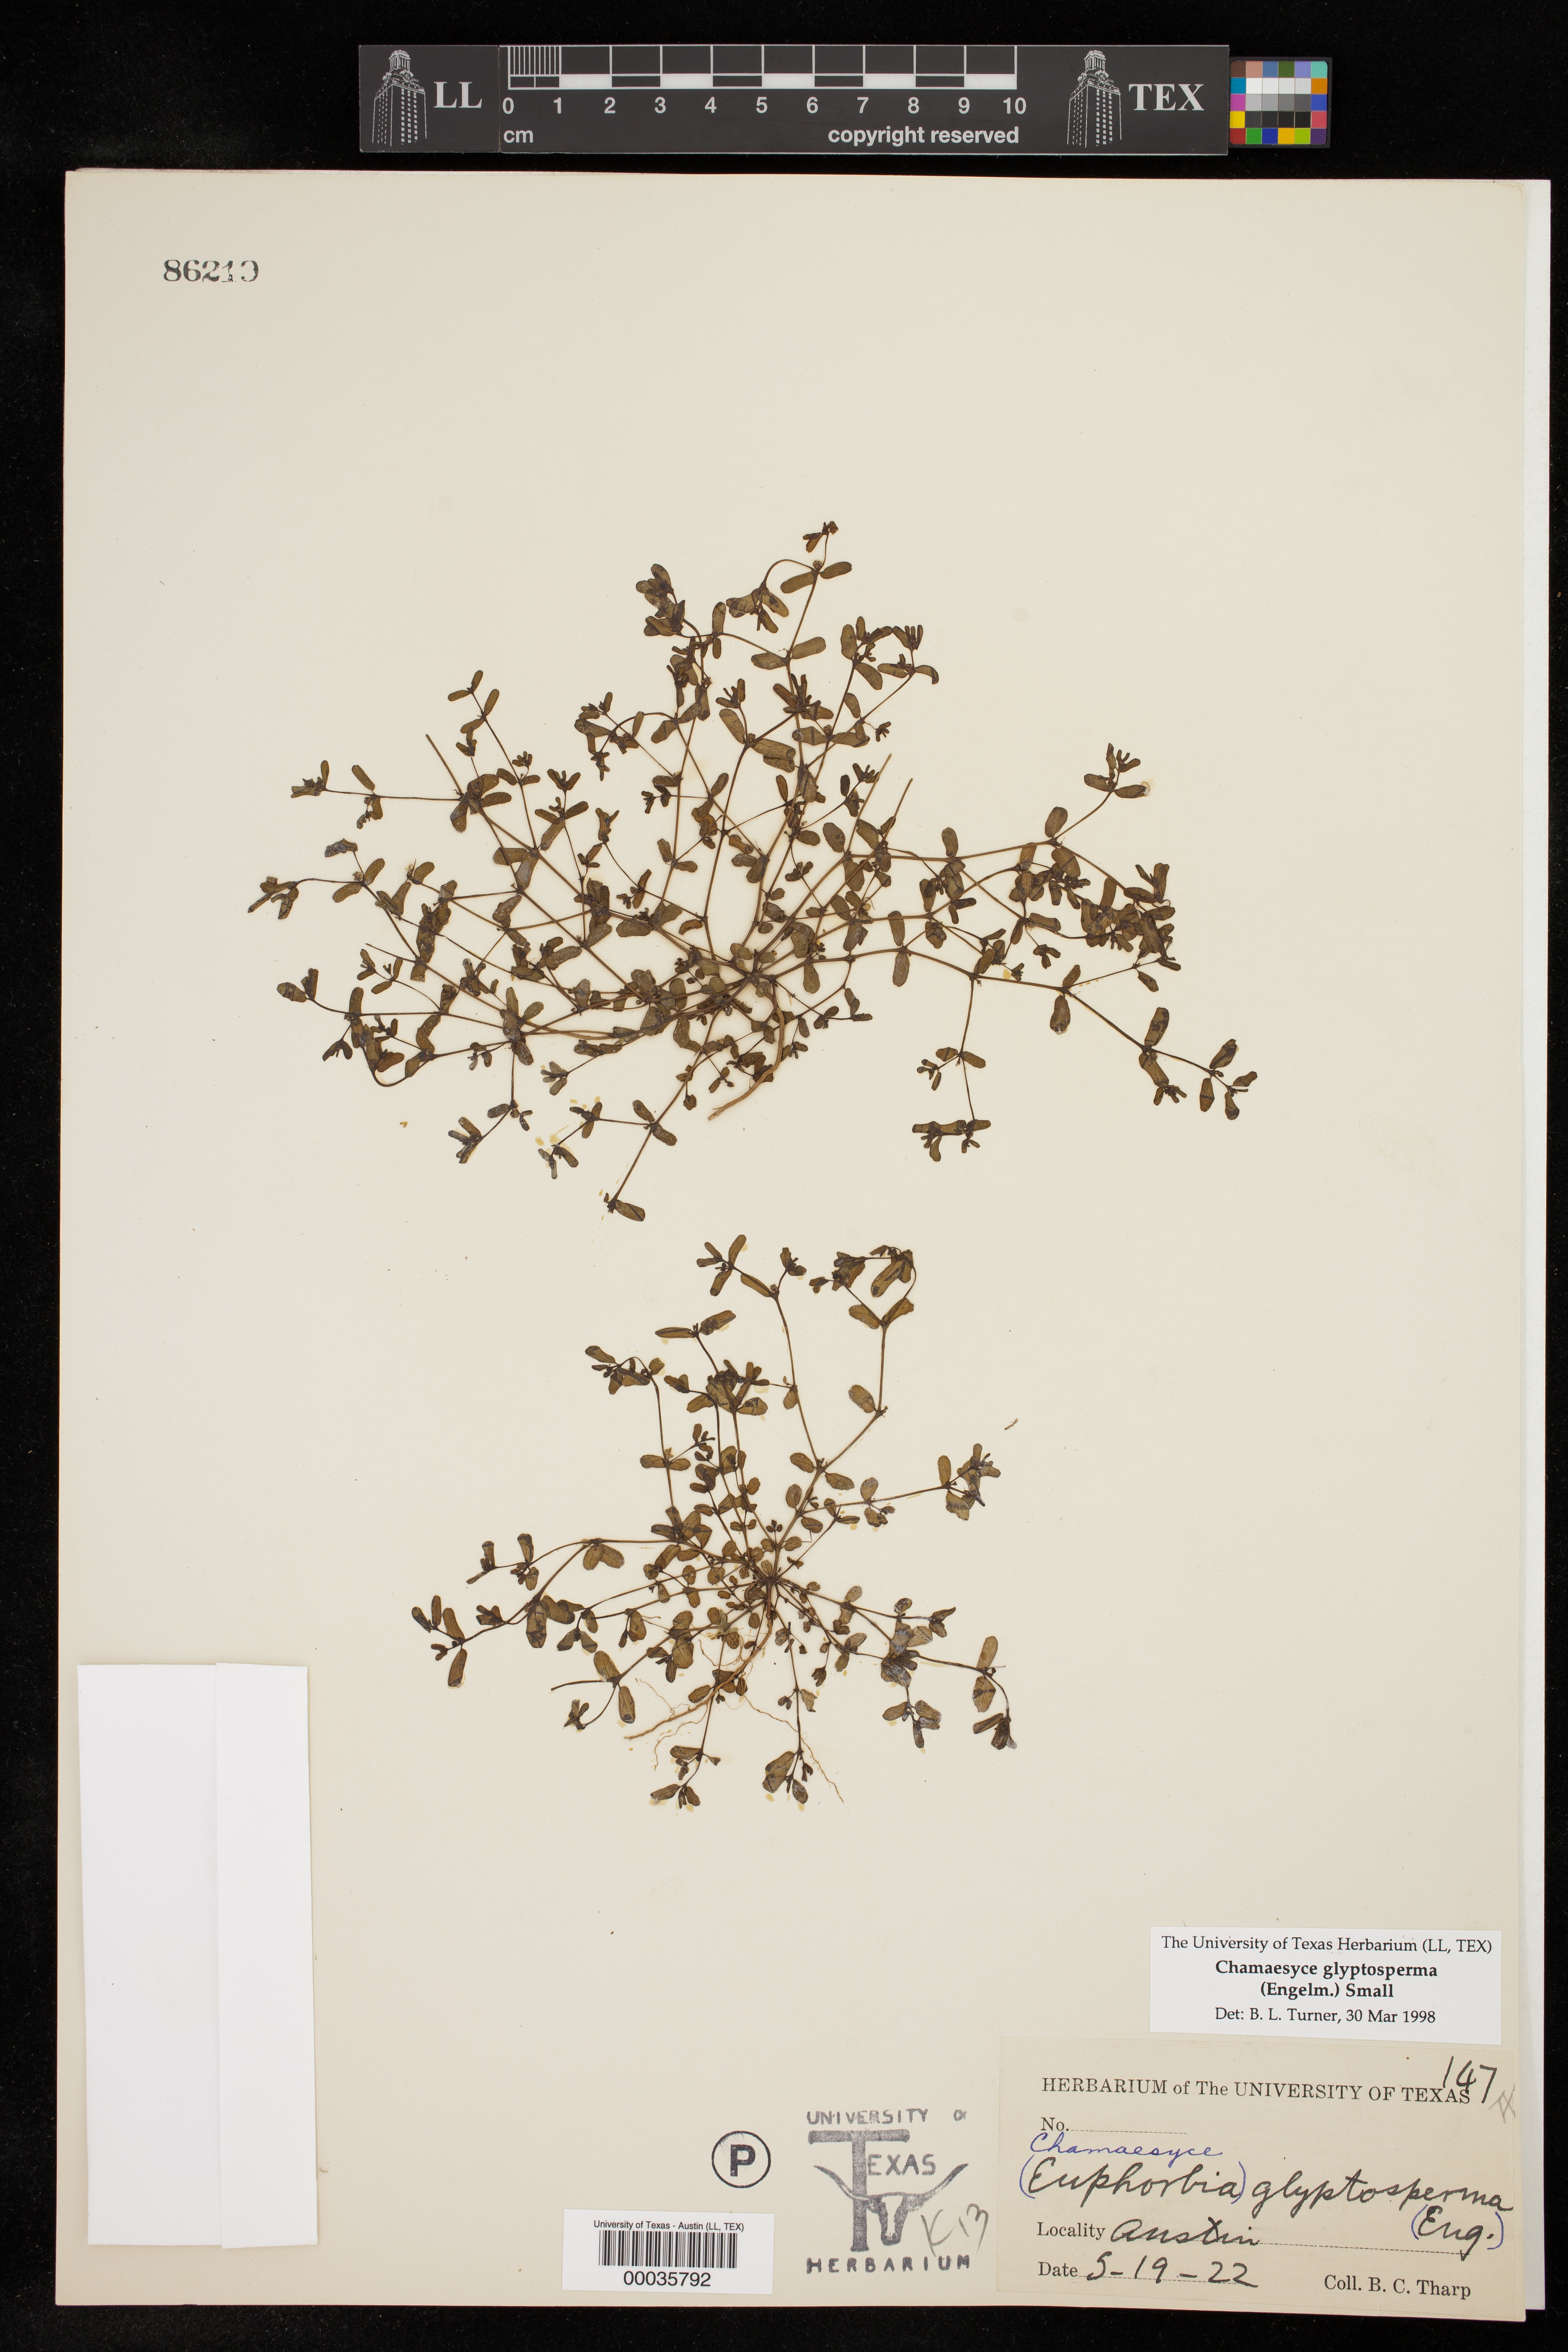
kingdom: Plantae
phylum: Tracheophyta
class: Magnoliopsida
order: Malpighiales
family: Euphorbiaceae
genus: Euphorbia
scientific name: Euphorbia glyptosperma
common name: Corrugate-seeded spurge
